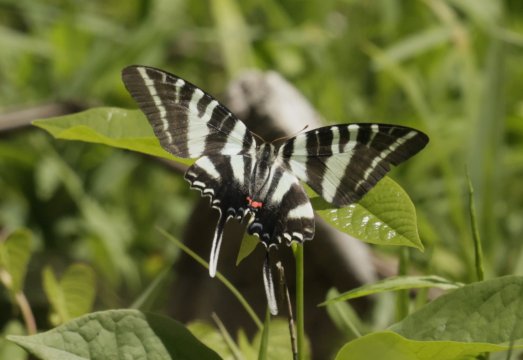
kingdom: Animalia
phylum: Arthropoda
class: Insecta
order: Lepidoptera
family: Papilionidae
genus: Protographium
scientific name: Protographium marcellus
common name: Zebra Swallowtail
